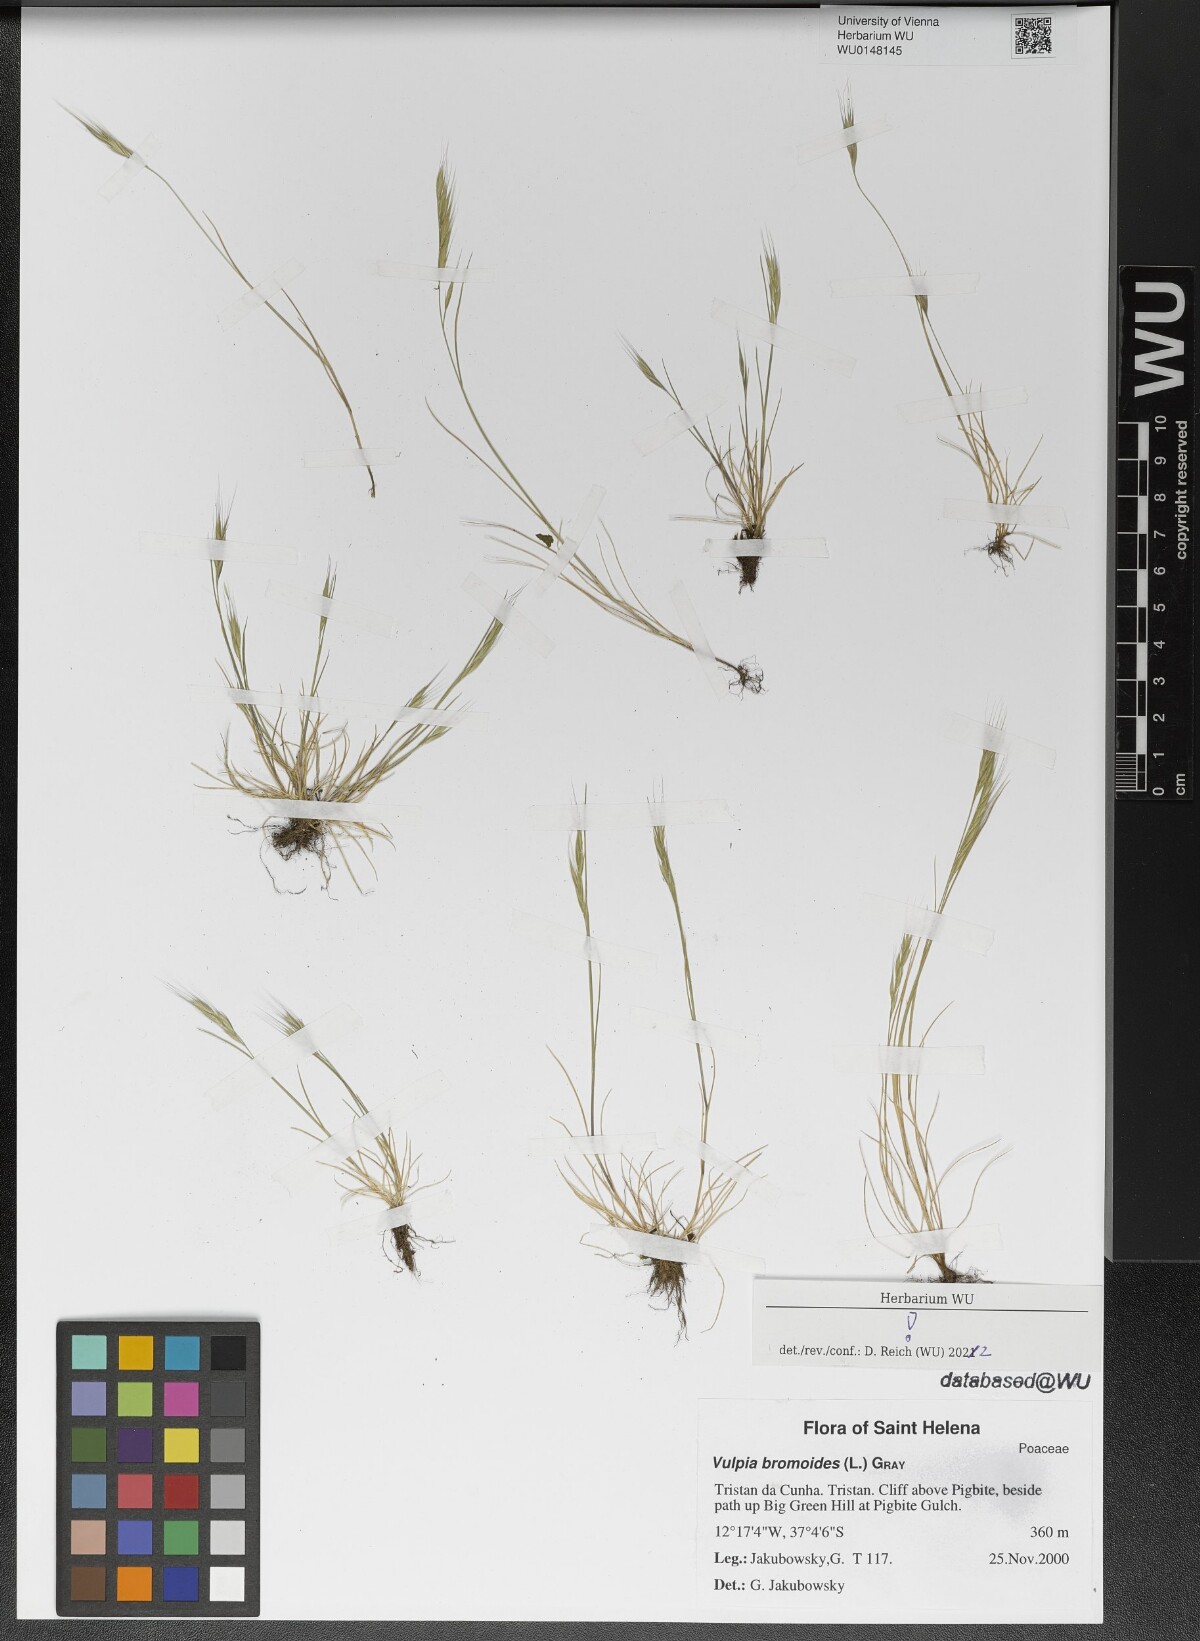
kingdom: Plantae
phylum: Tracheophyta
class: Liliopsida
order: Poales
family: Poaceae
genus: Festuca
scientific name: Festuca bromoides
